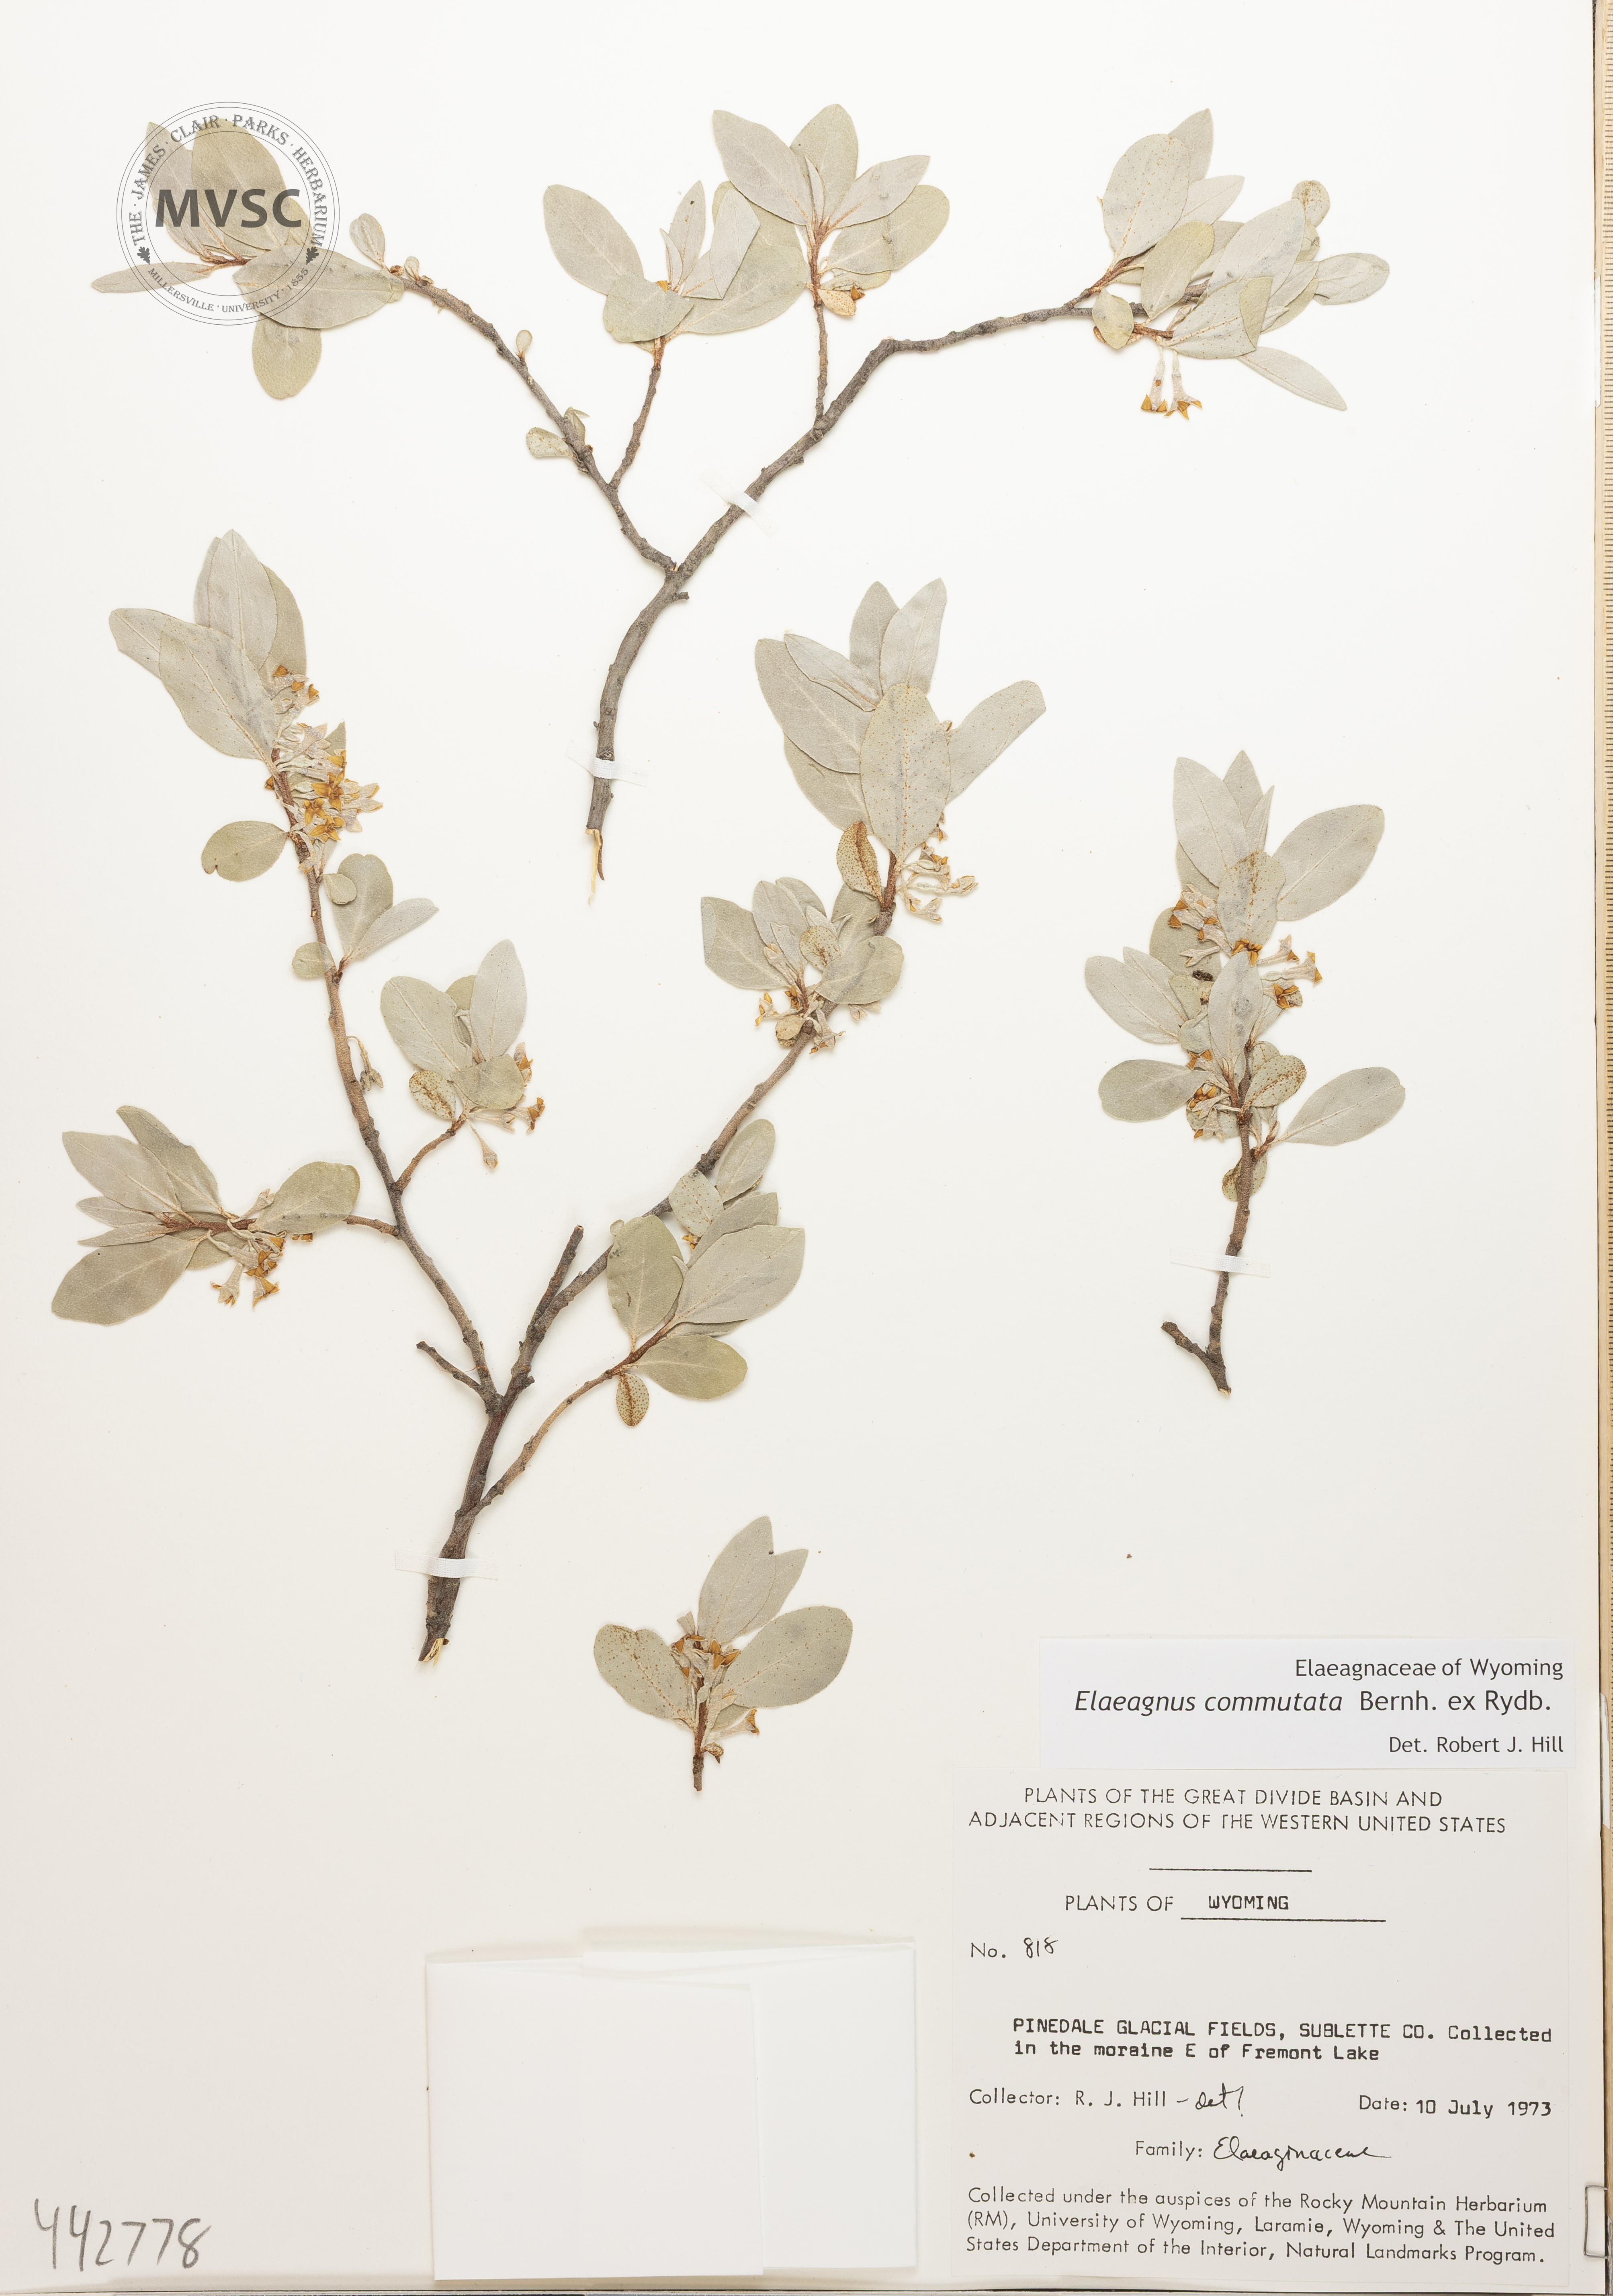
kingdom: Plantae
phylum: Tracheophyta
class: Magnoliopsida
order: Rosales
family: Elaeagnaceae
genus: Elaeagnus
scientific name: Elaeagnus commutata
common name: Silverberry
